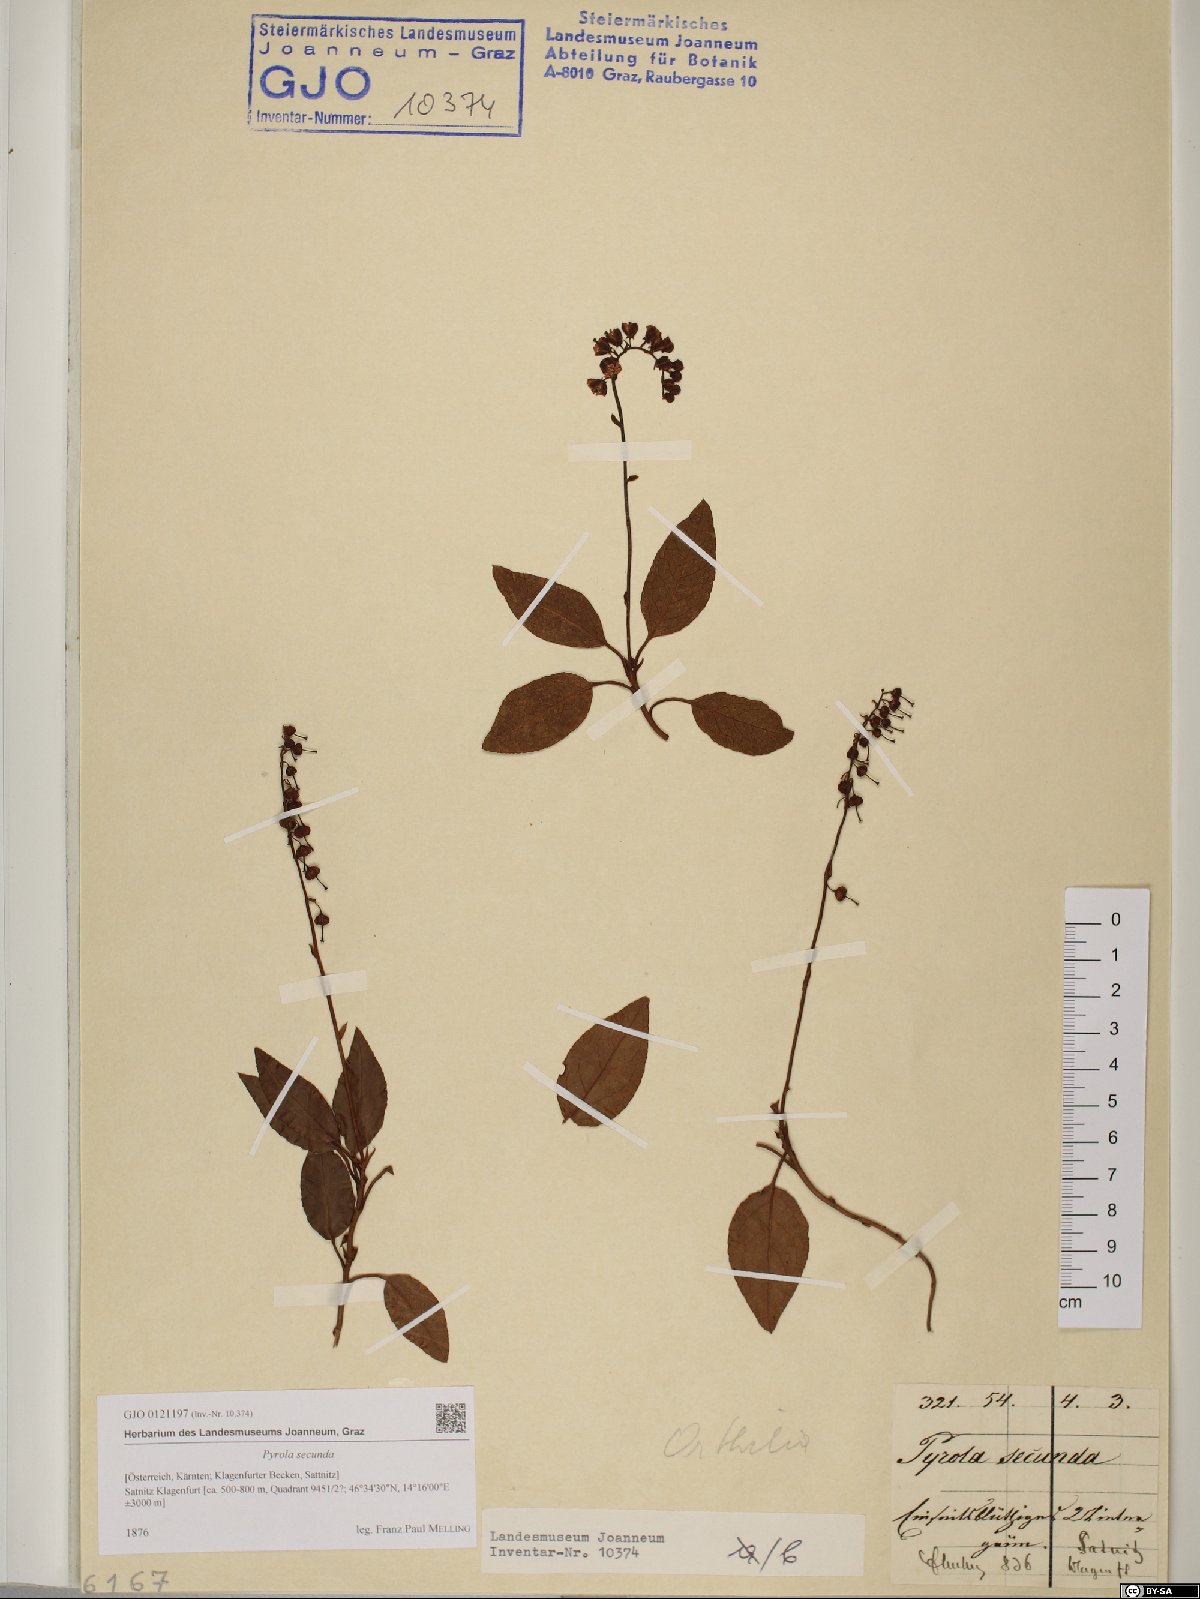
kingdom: Plantae
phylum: Tracheophyta
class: Magnoliopsida
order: Ericales
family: Ericaceae
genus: Orthilia
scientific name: Orthilia secunda
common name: One-sided orthilia
